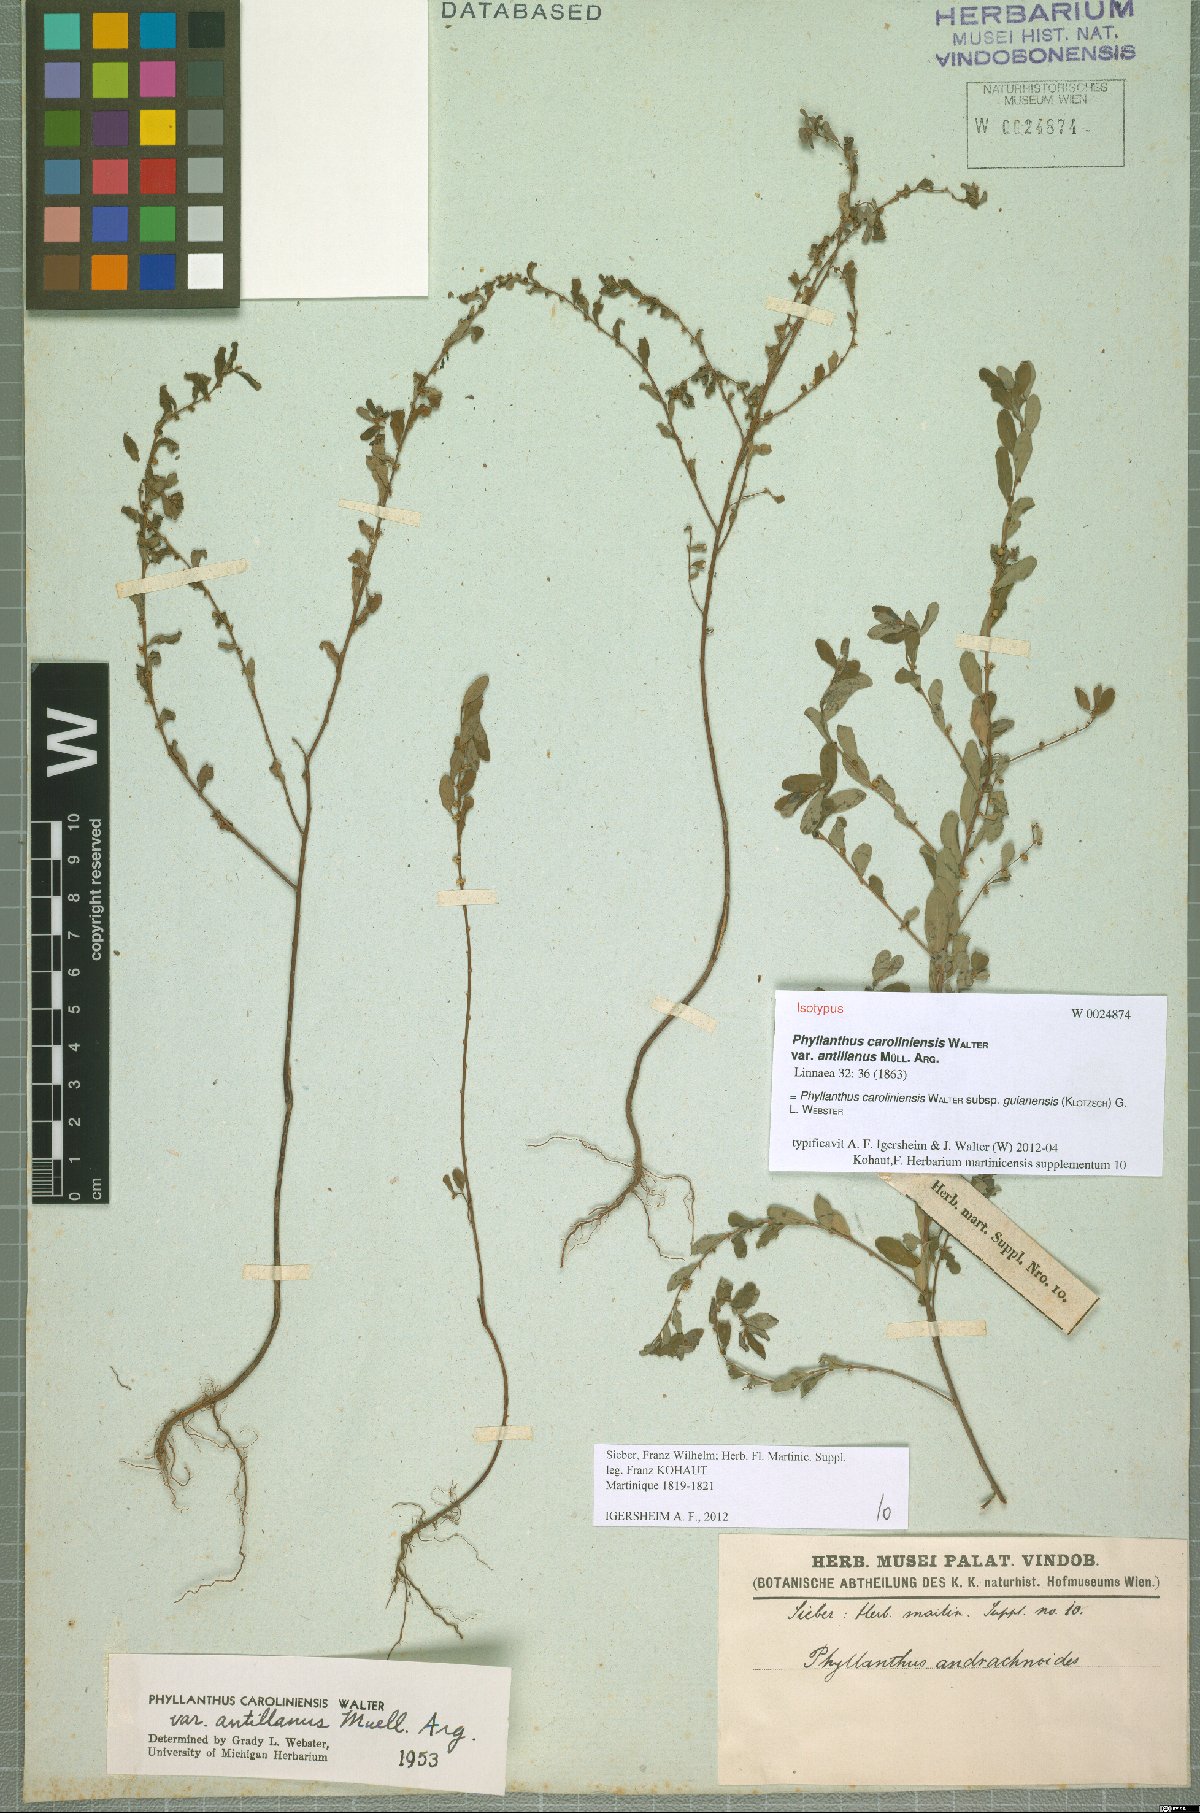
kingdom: Plantae
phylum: Tracheophyta
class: Magnoliopsida
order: Malpighiales
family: Phyllanthaceae
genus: Phyllanthus
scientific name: Phyllanthus caroliniensis
